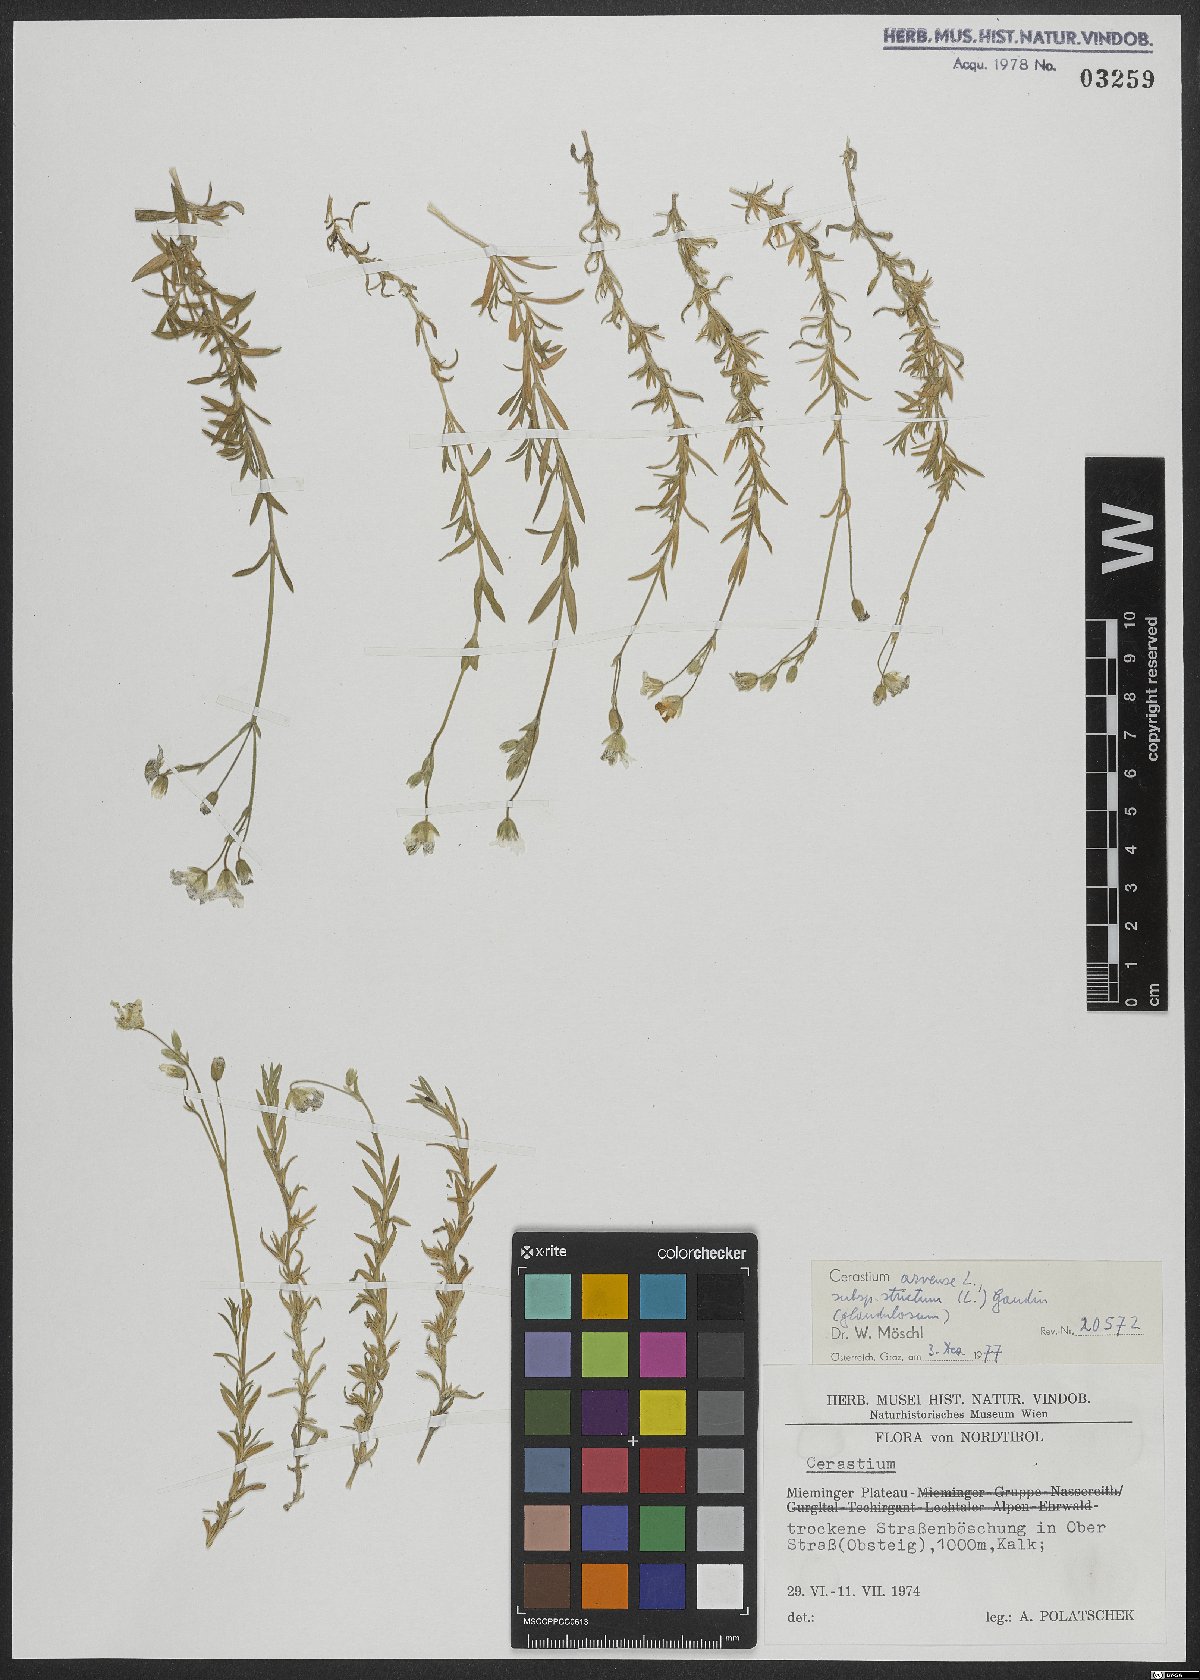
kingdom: Plantae
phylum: Tracheophyta
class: Magnoliopsida
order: Caryophyllales
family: Caryophyllaceae
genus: Cerastium
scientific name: Cerastium elongatum
